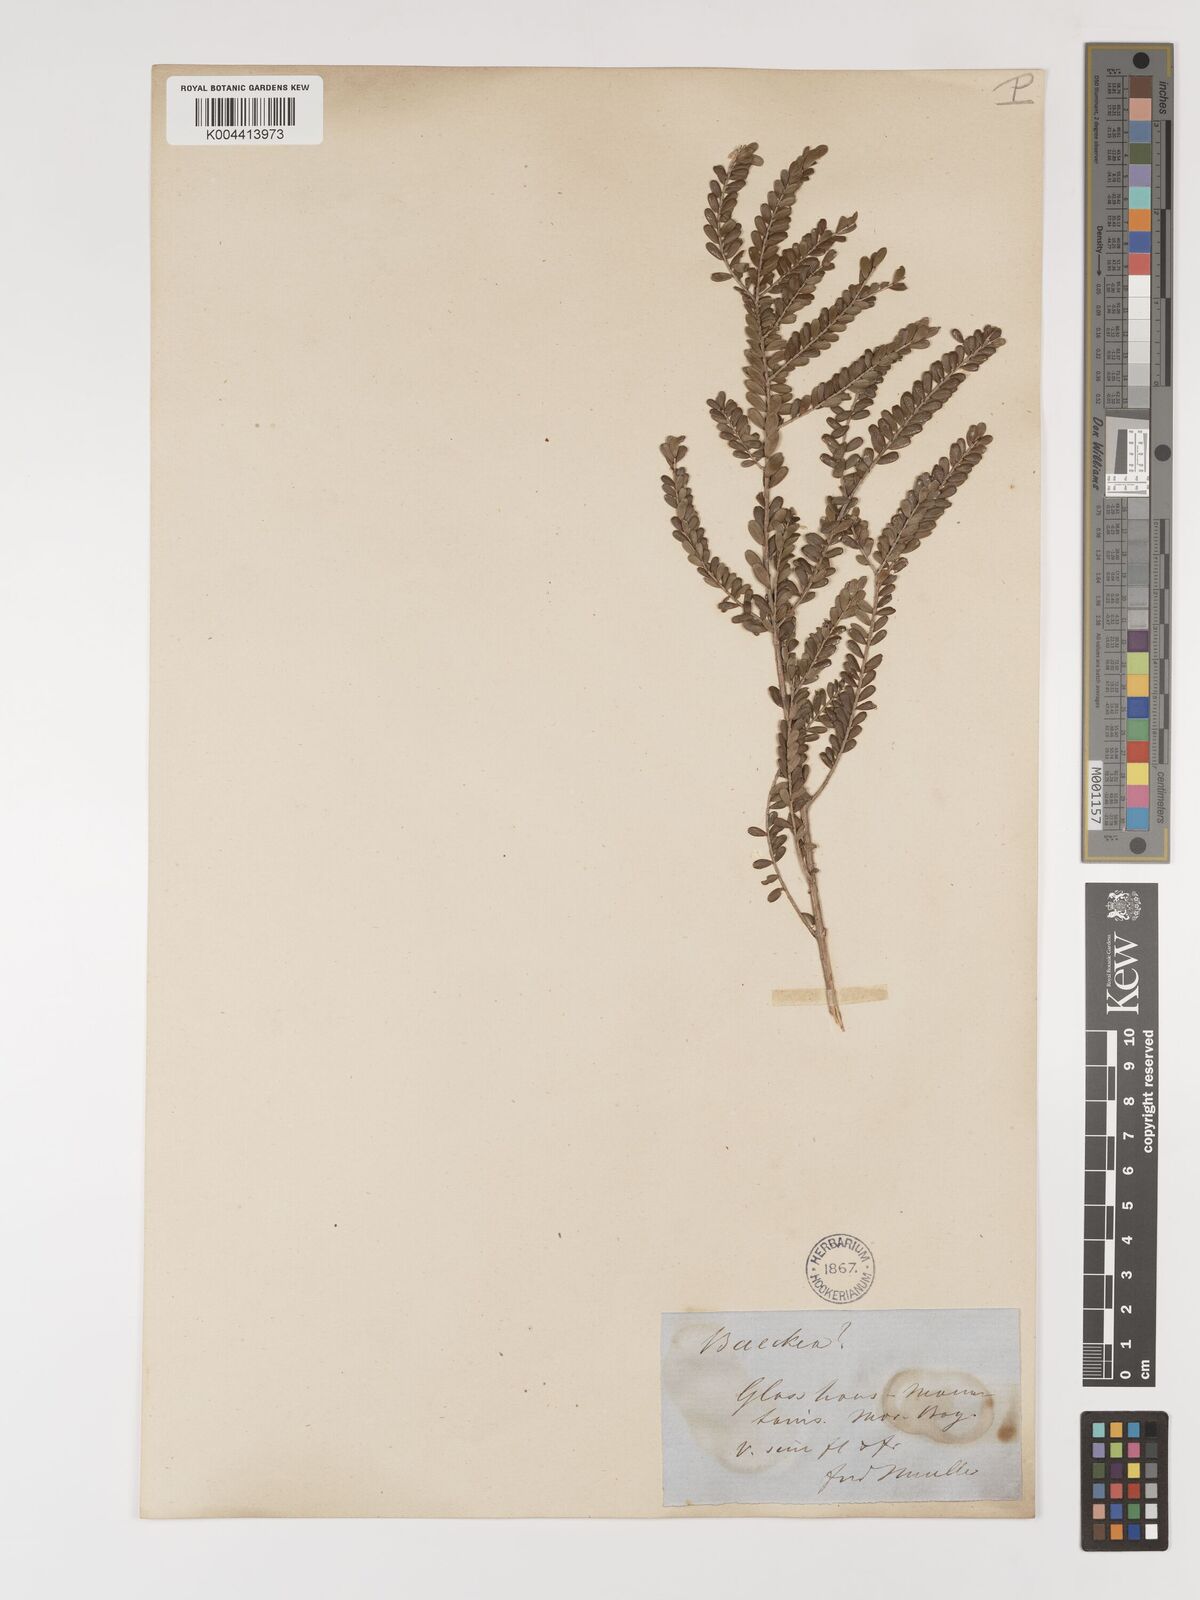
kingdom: Plantae
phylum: Tracheophyta
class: Magnoliopsida
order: Myrtales
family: Myrtaceae
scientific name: Myrtaceae
